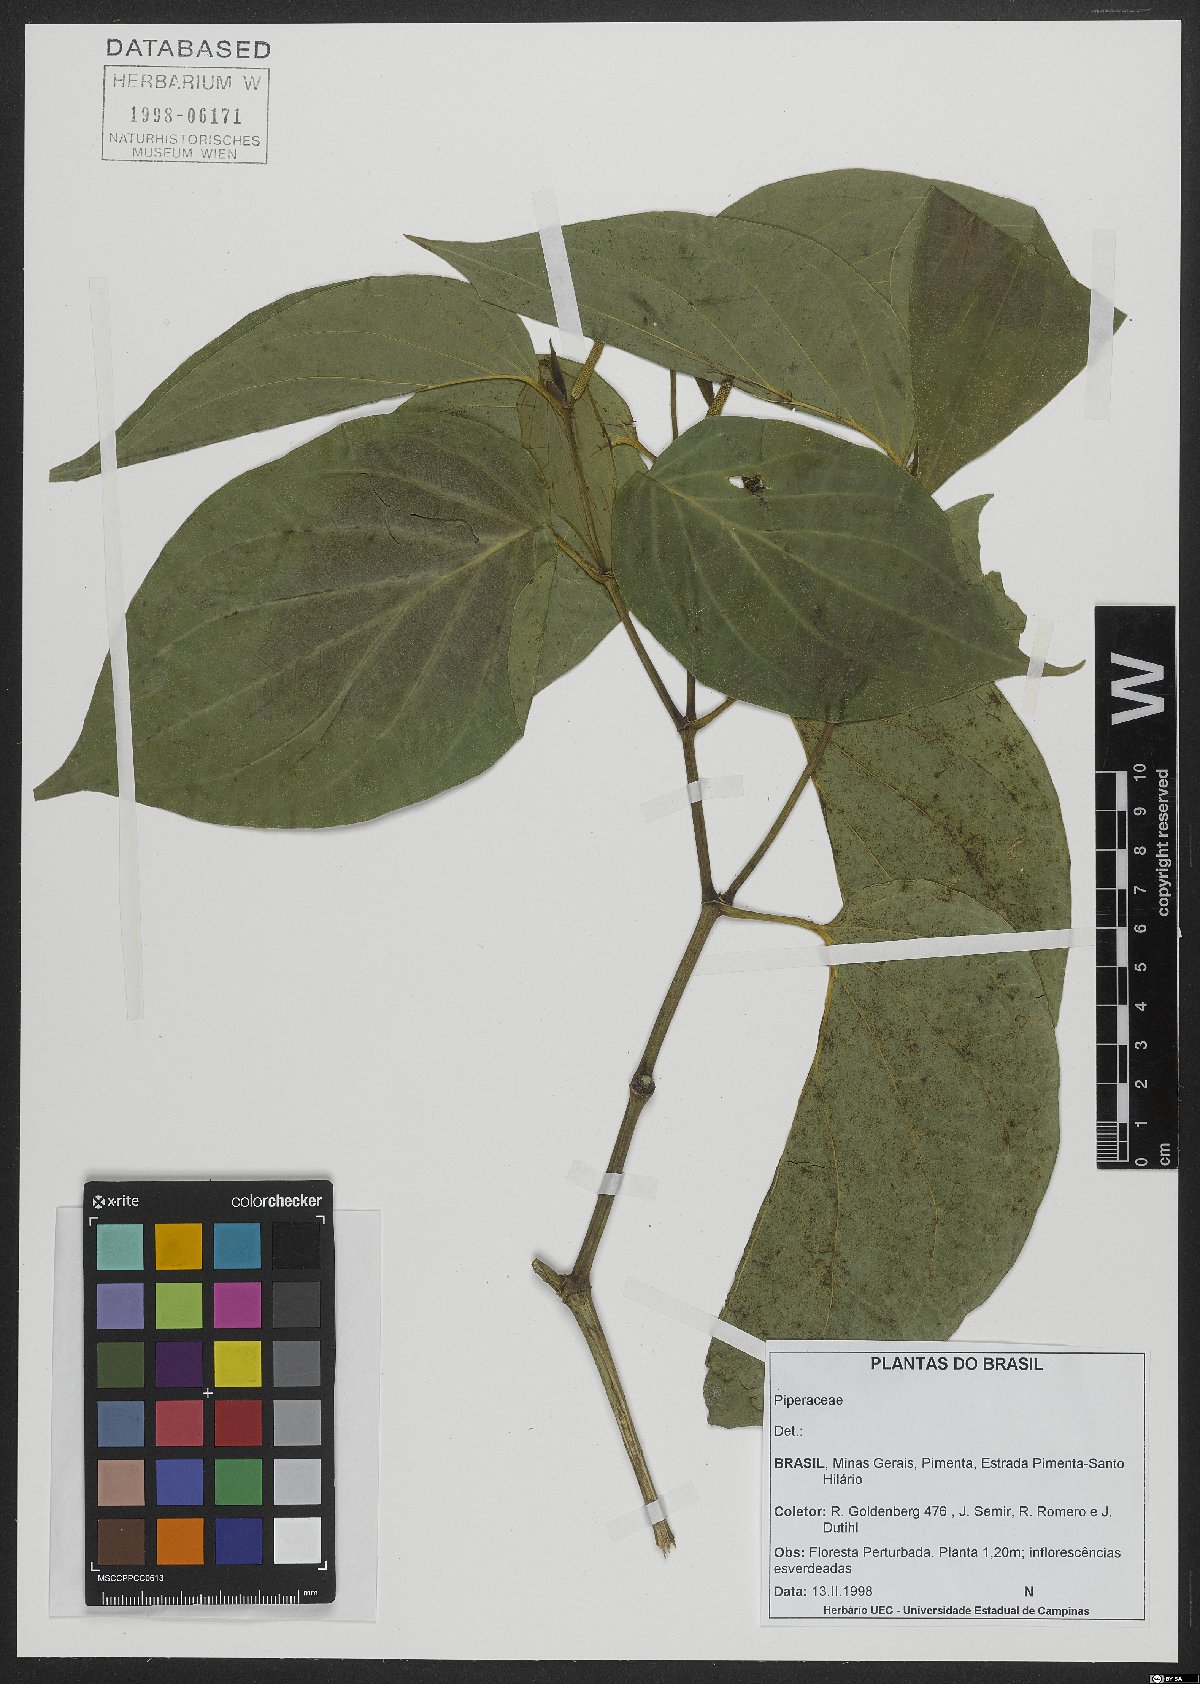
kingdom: Plantae
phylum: Tracheophyta
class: Magnoliopsida
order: Piperales
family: Piperaceae
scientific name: Piperaceae
